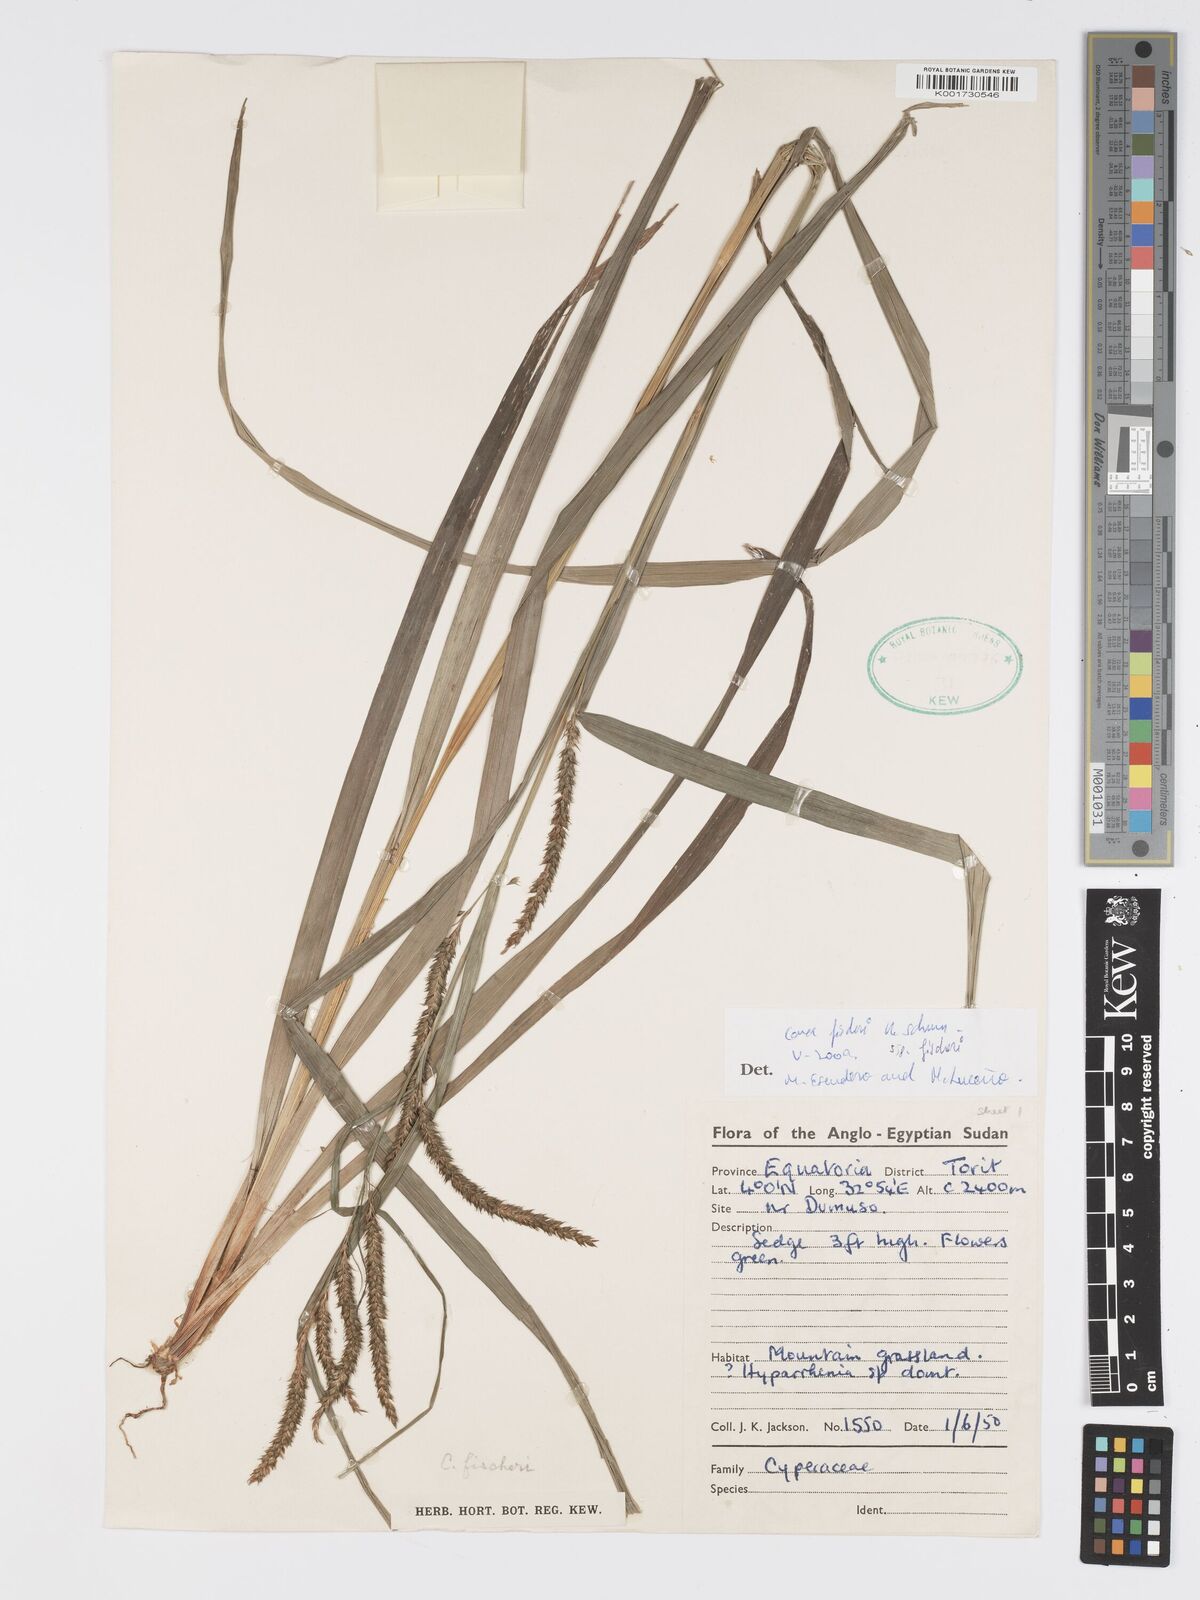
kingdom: Plantae
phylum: Tracheophyta
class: Liliopsida
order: Poales
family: Cyperaceae
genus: Carex
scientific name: Carex fischeri
